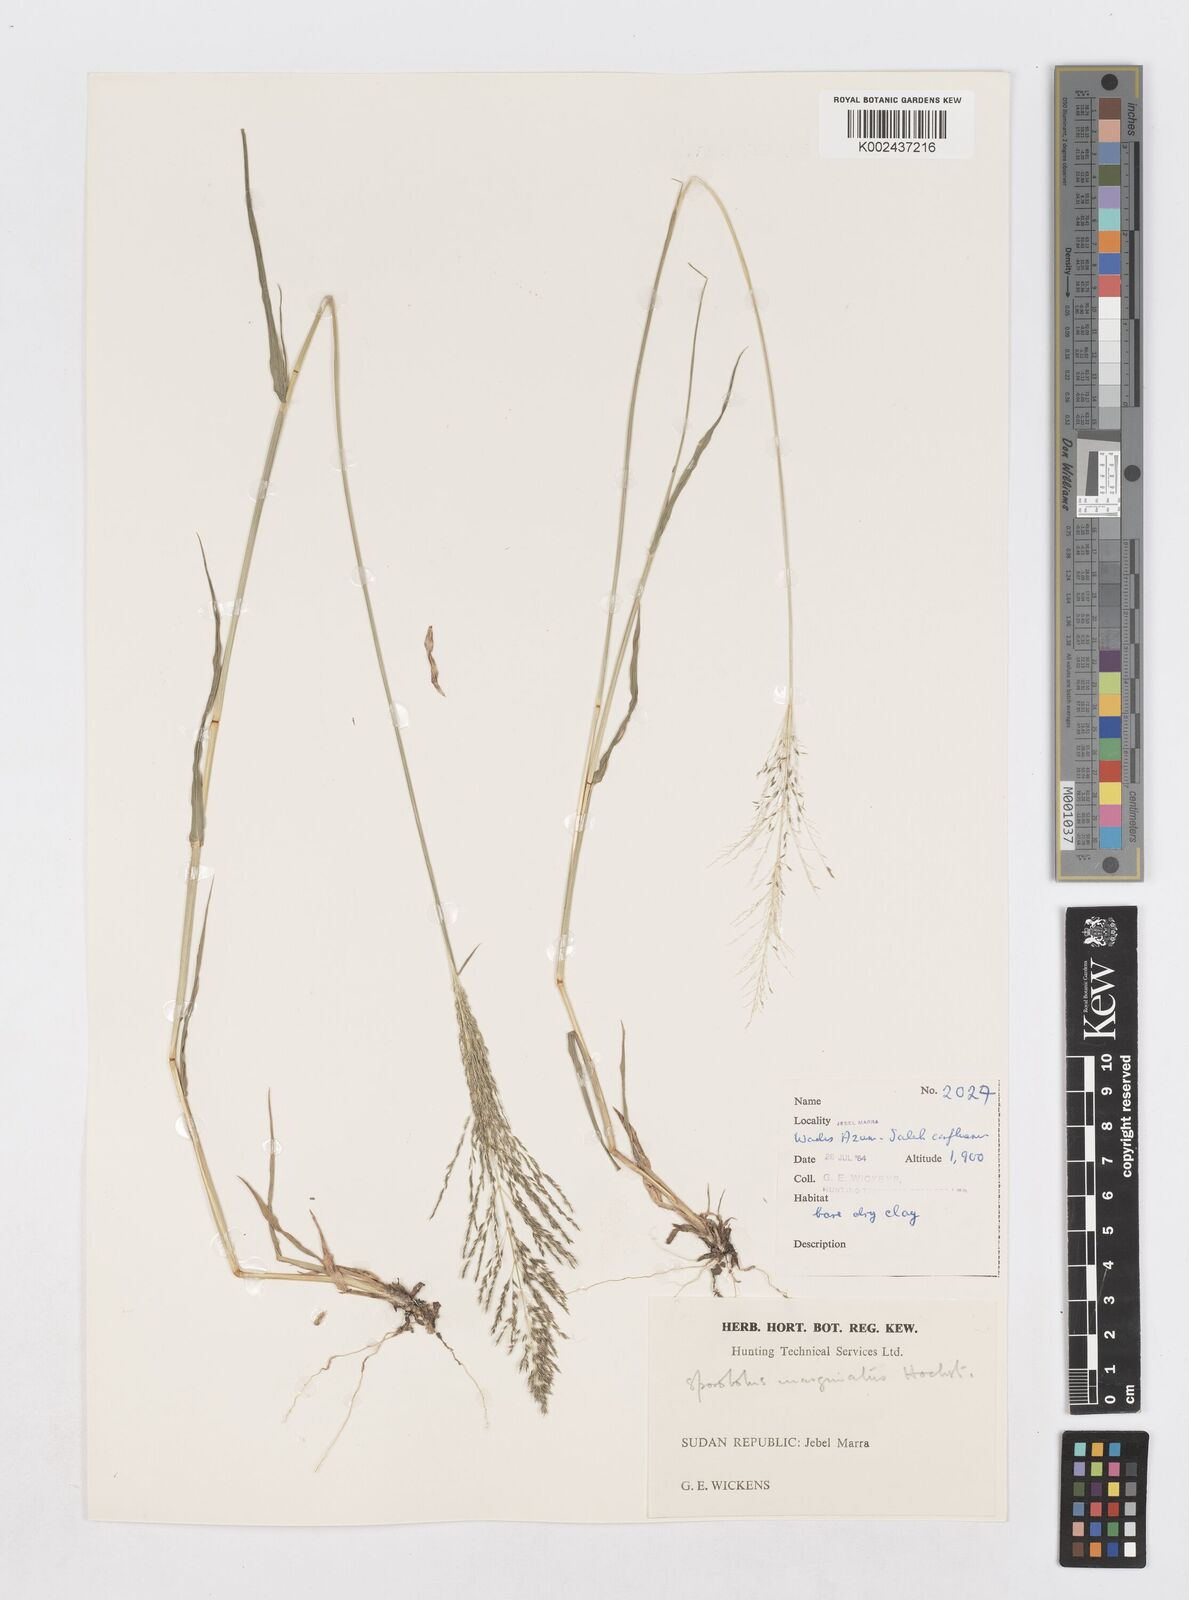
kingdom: Plantae
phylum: Tracheophyta
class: Liliopsida
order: Poales
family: Poaceae
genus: Sporobolus
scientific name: Sporobolus ioclados
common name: Pan dropseed
